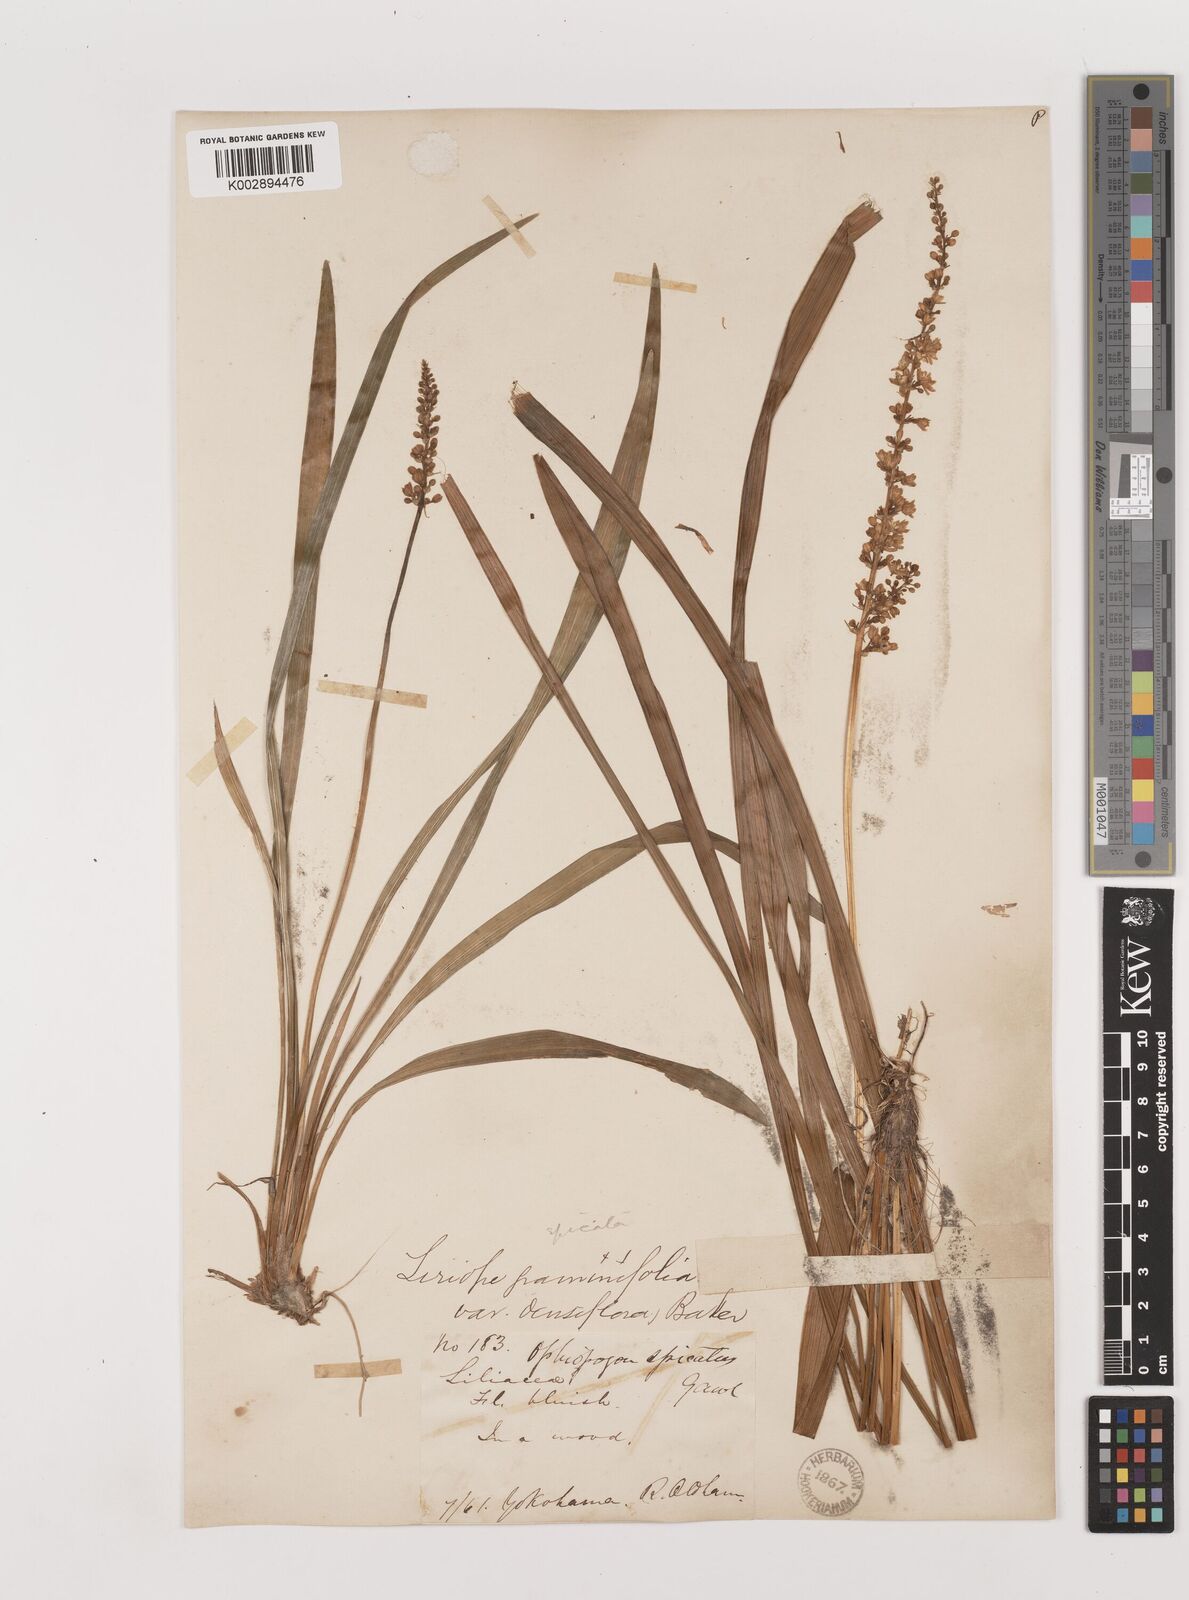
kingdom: Plantae
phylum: Tracheophyta
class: Liliopsida
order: Asparagales
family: Asparagaceae
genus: Liriope
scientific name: Liriope muscari
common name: Big blue lilyturf
